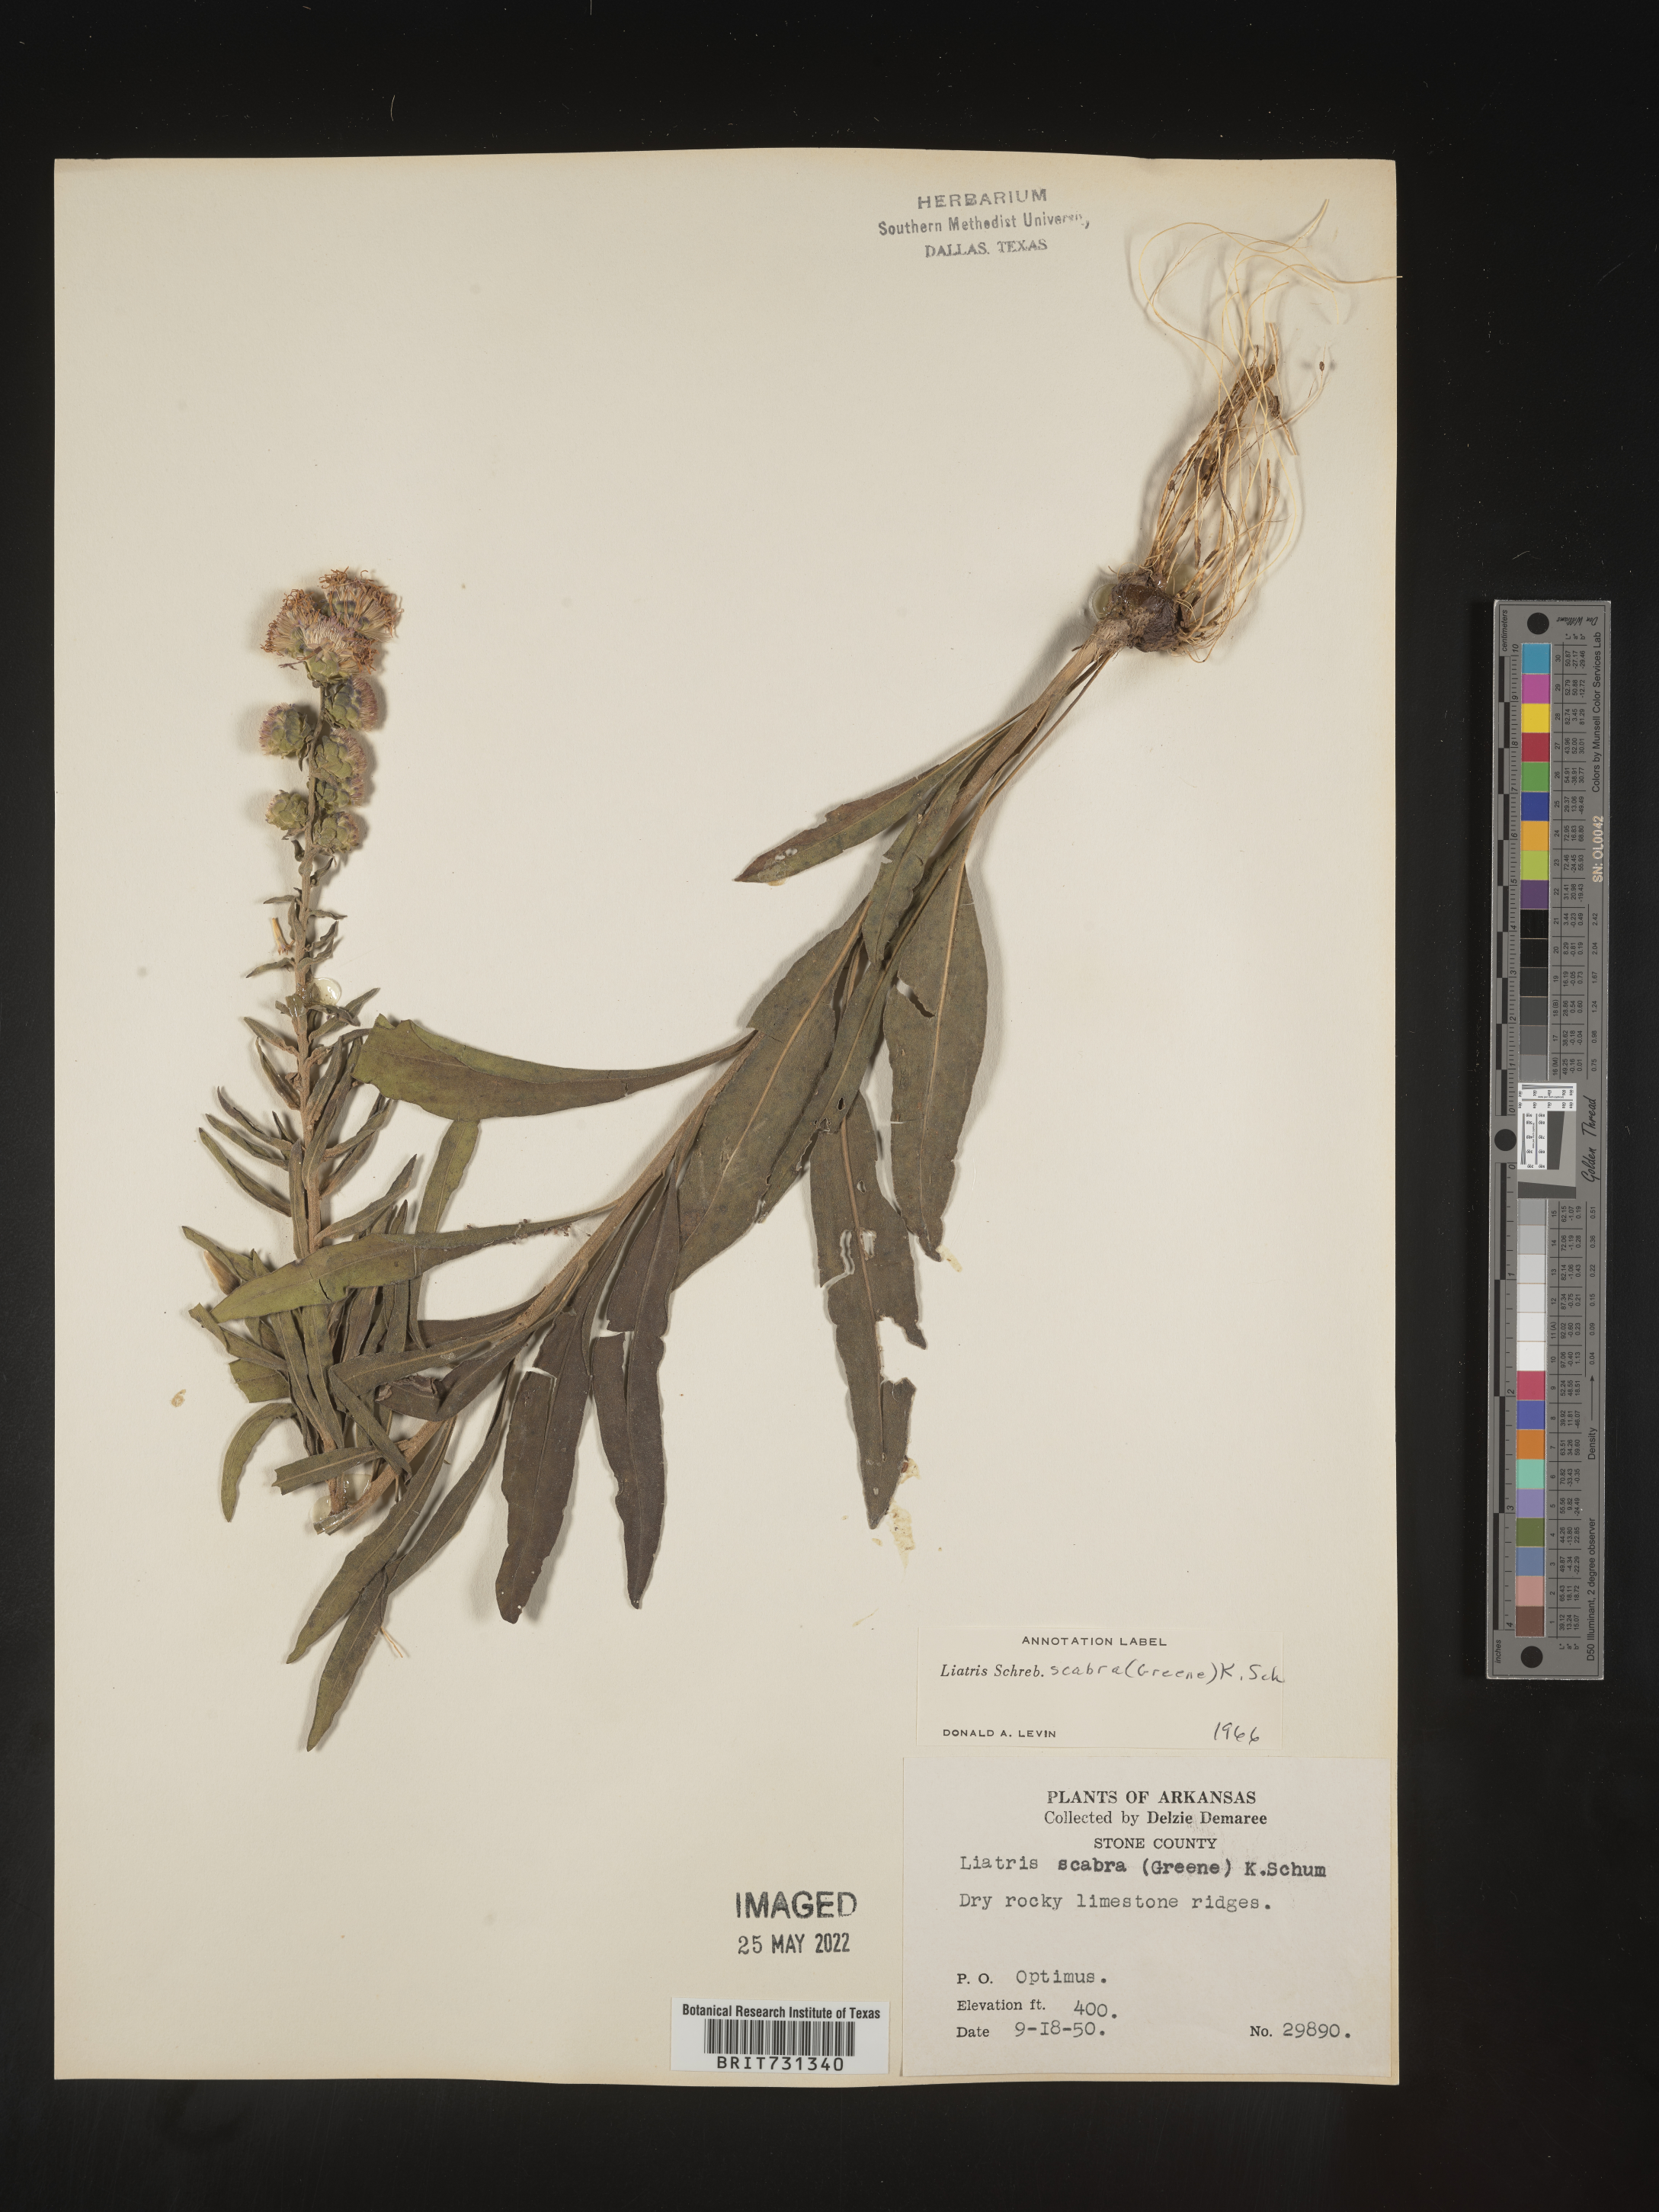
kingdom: Plantae
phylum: Tracheophyta
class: Magnoliopsida
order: Asterales
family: Asteraceae
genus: Liatris
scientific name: Liatris squarrulosa
